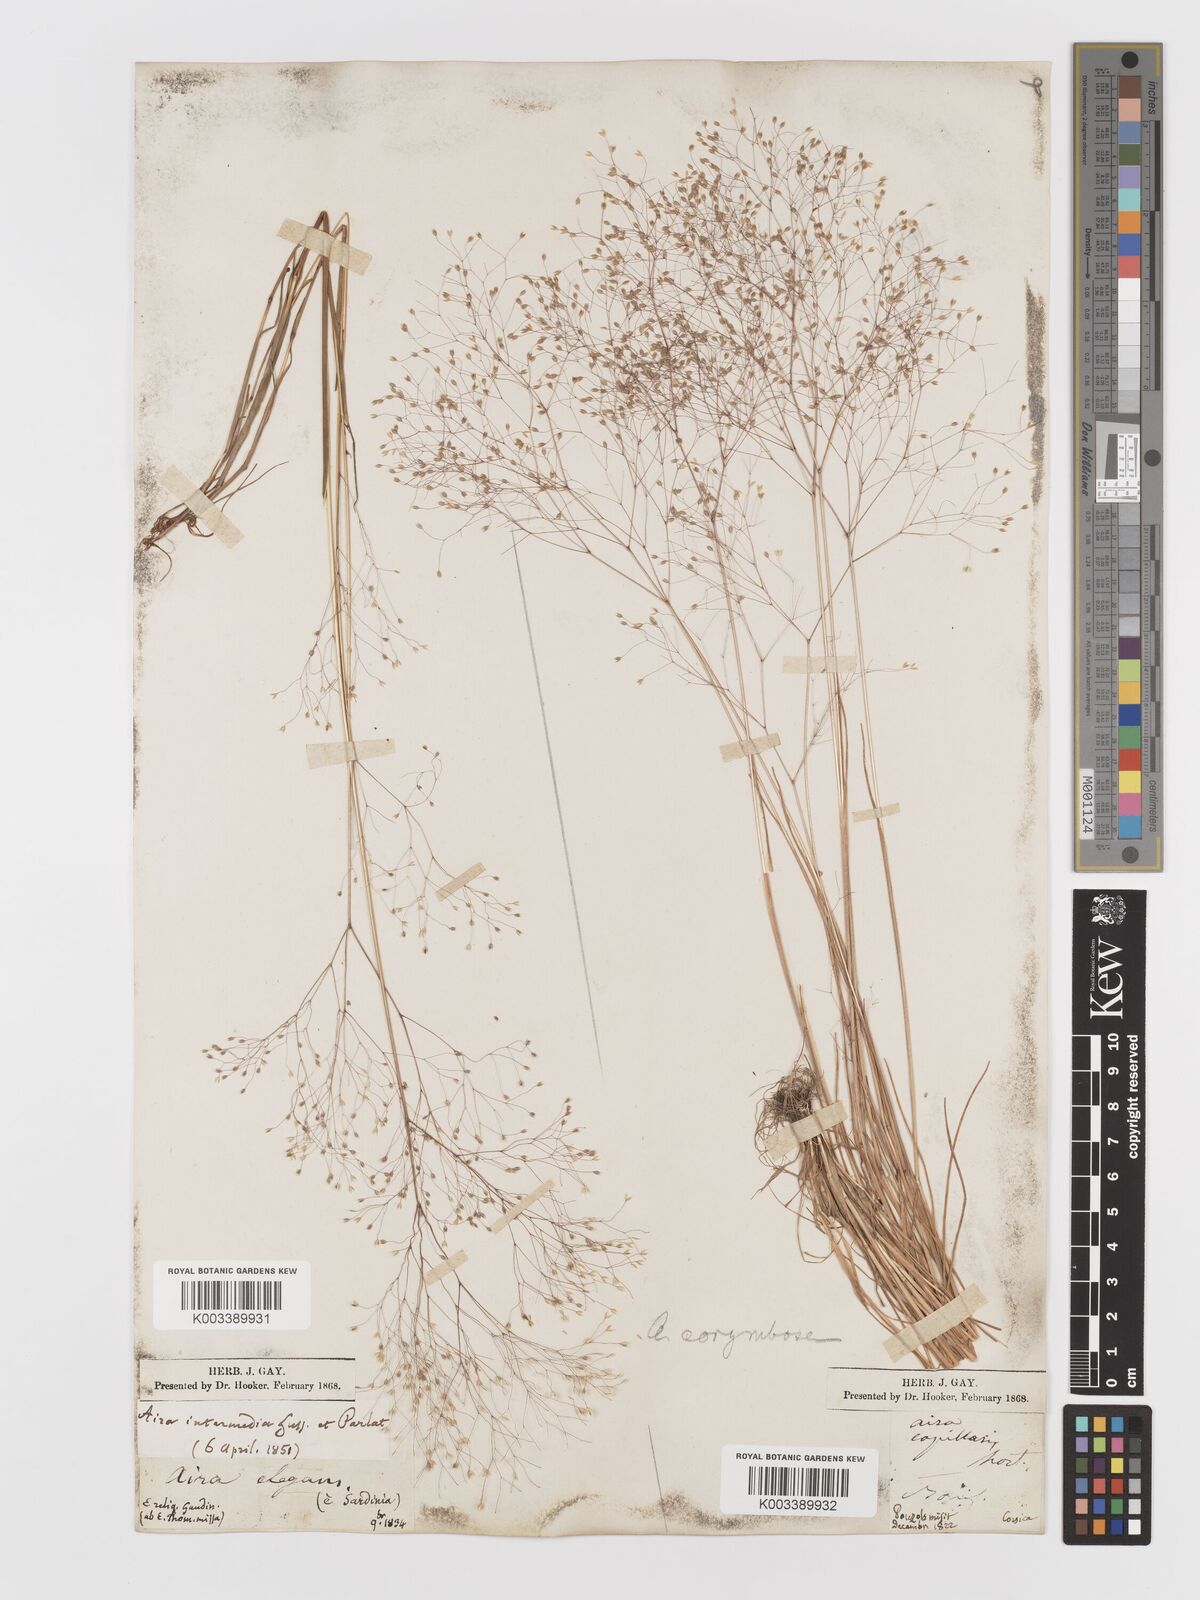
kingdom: Plantae
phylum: Tracheophyta
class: Liliopsida
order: Poales
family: Poaceae
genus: Aira
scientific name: Aira
